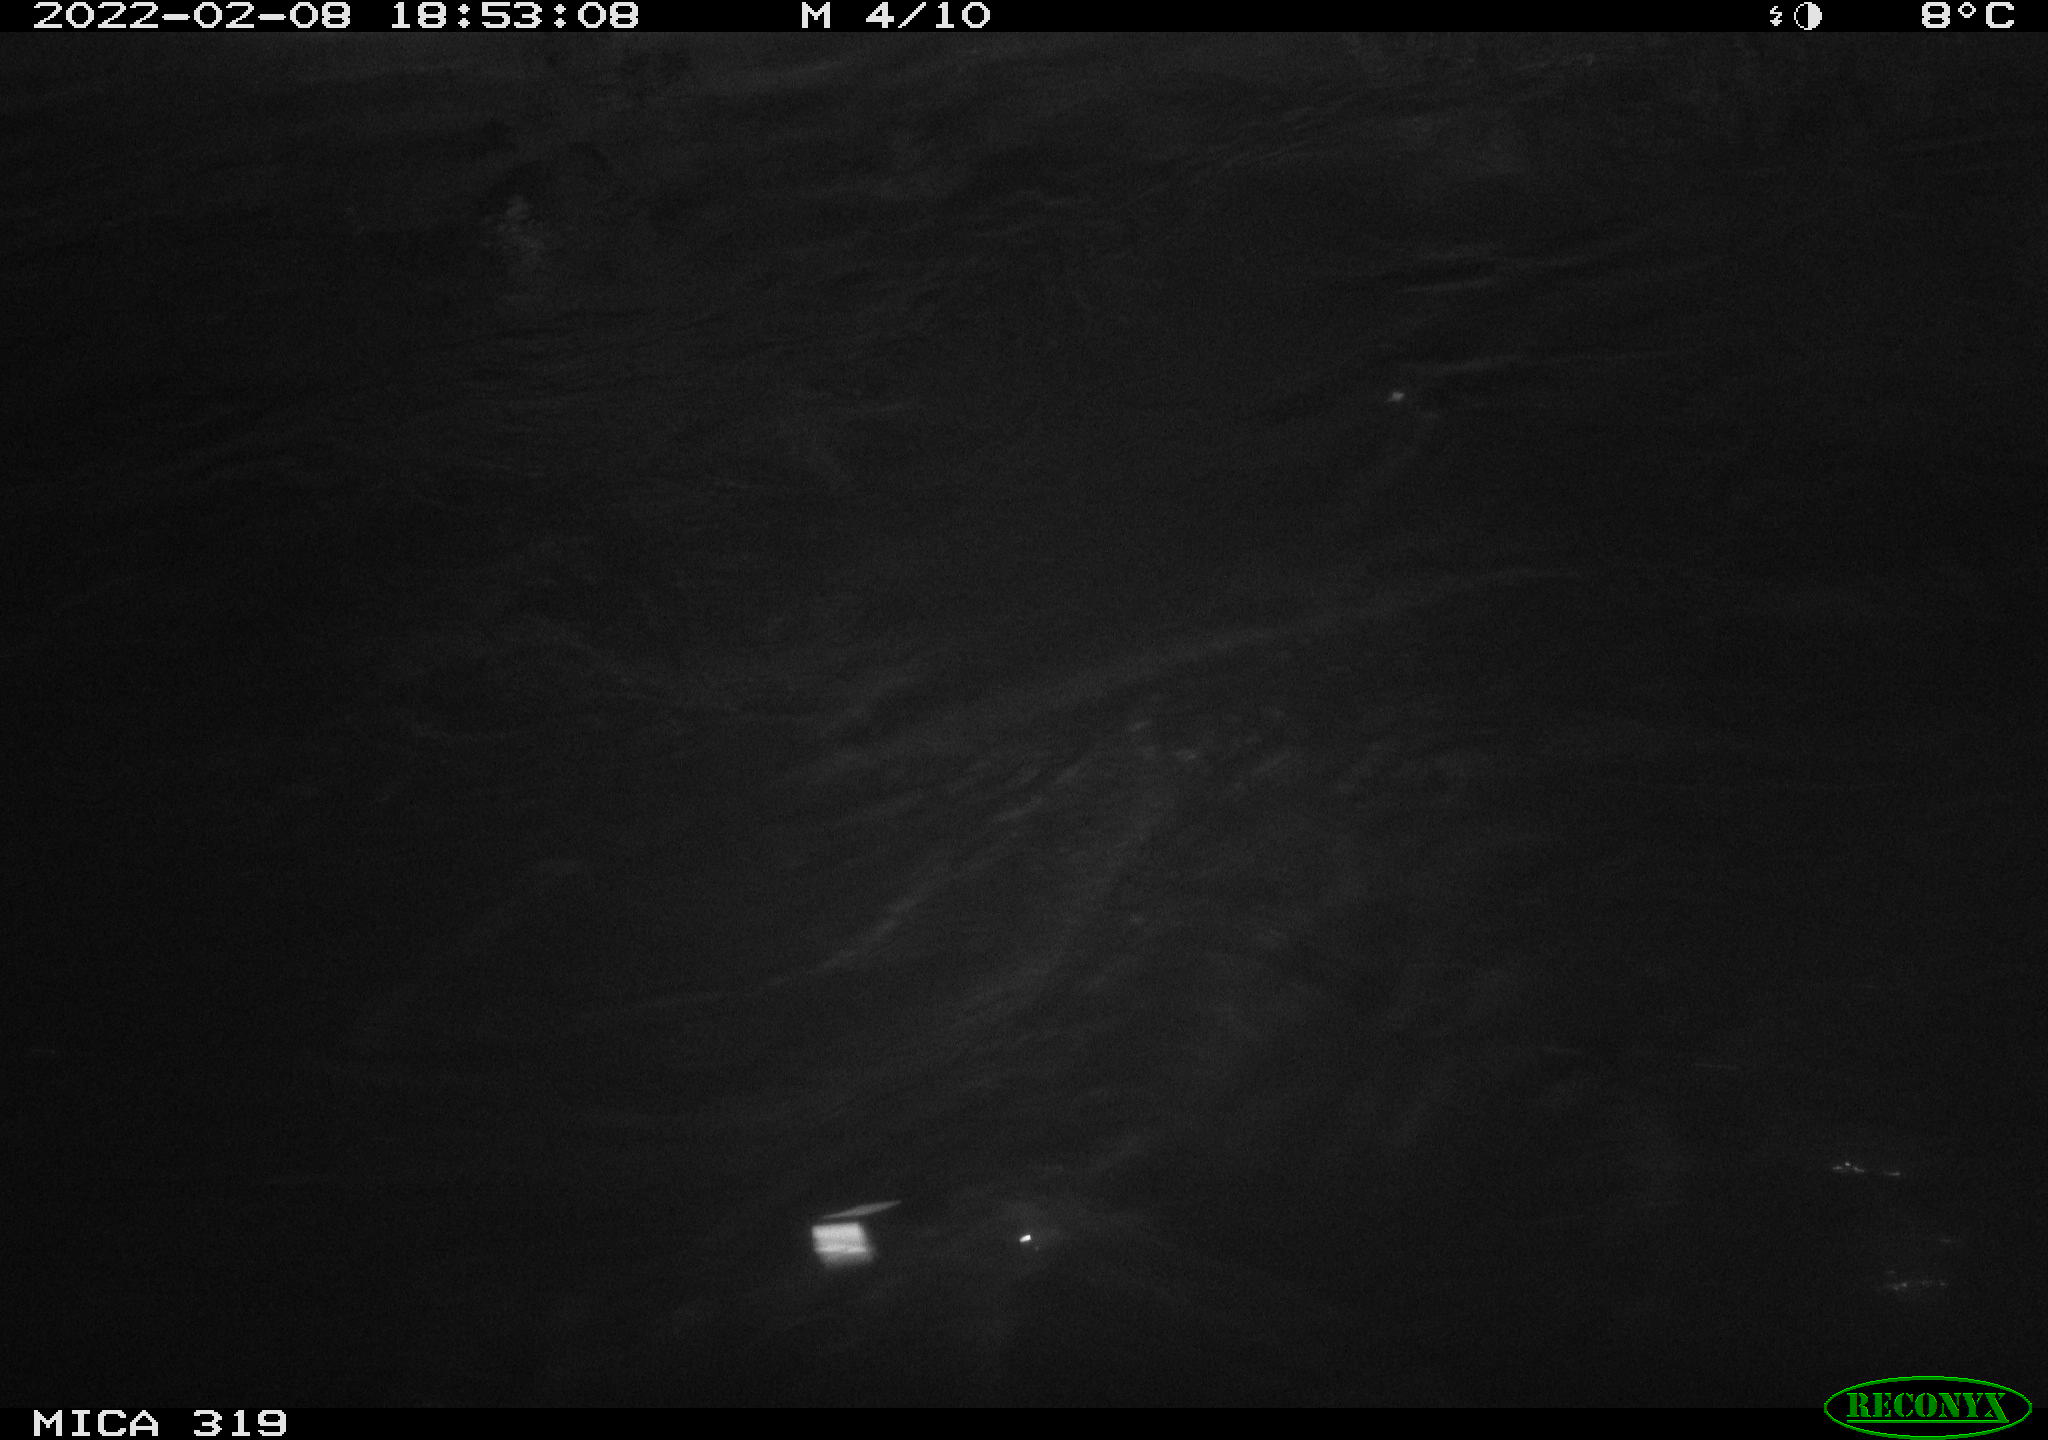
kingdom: Animalia
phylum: Chordata
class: Aves
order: Gruiformes
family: Rallidae
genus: Gallinula
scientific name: Gallinula chloropus
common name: Common moorhen
